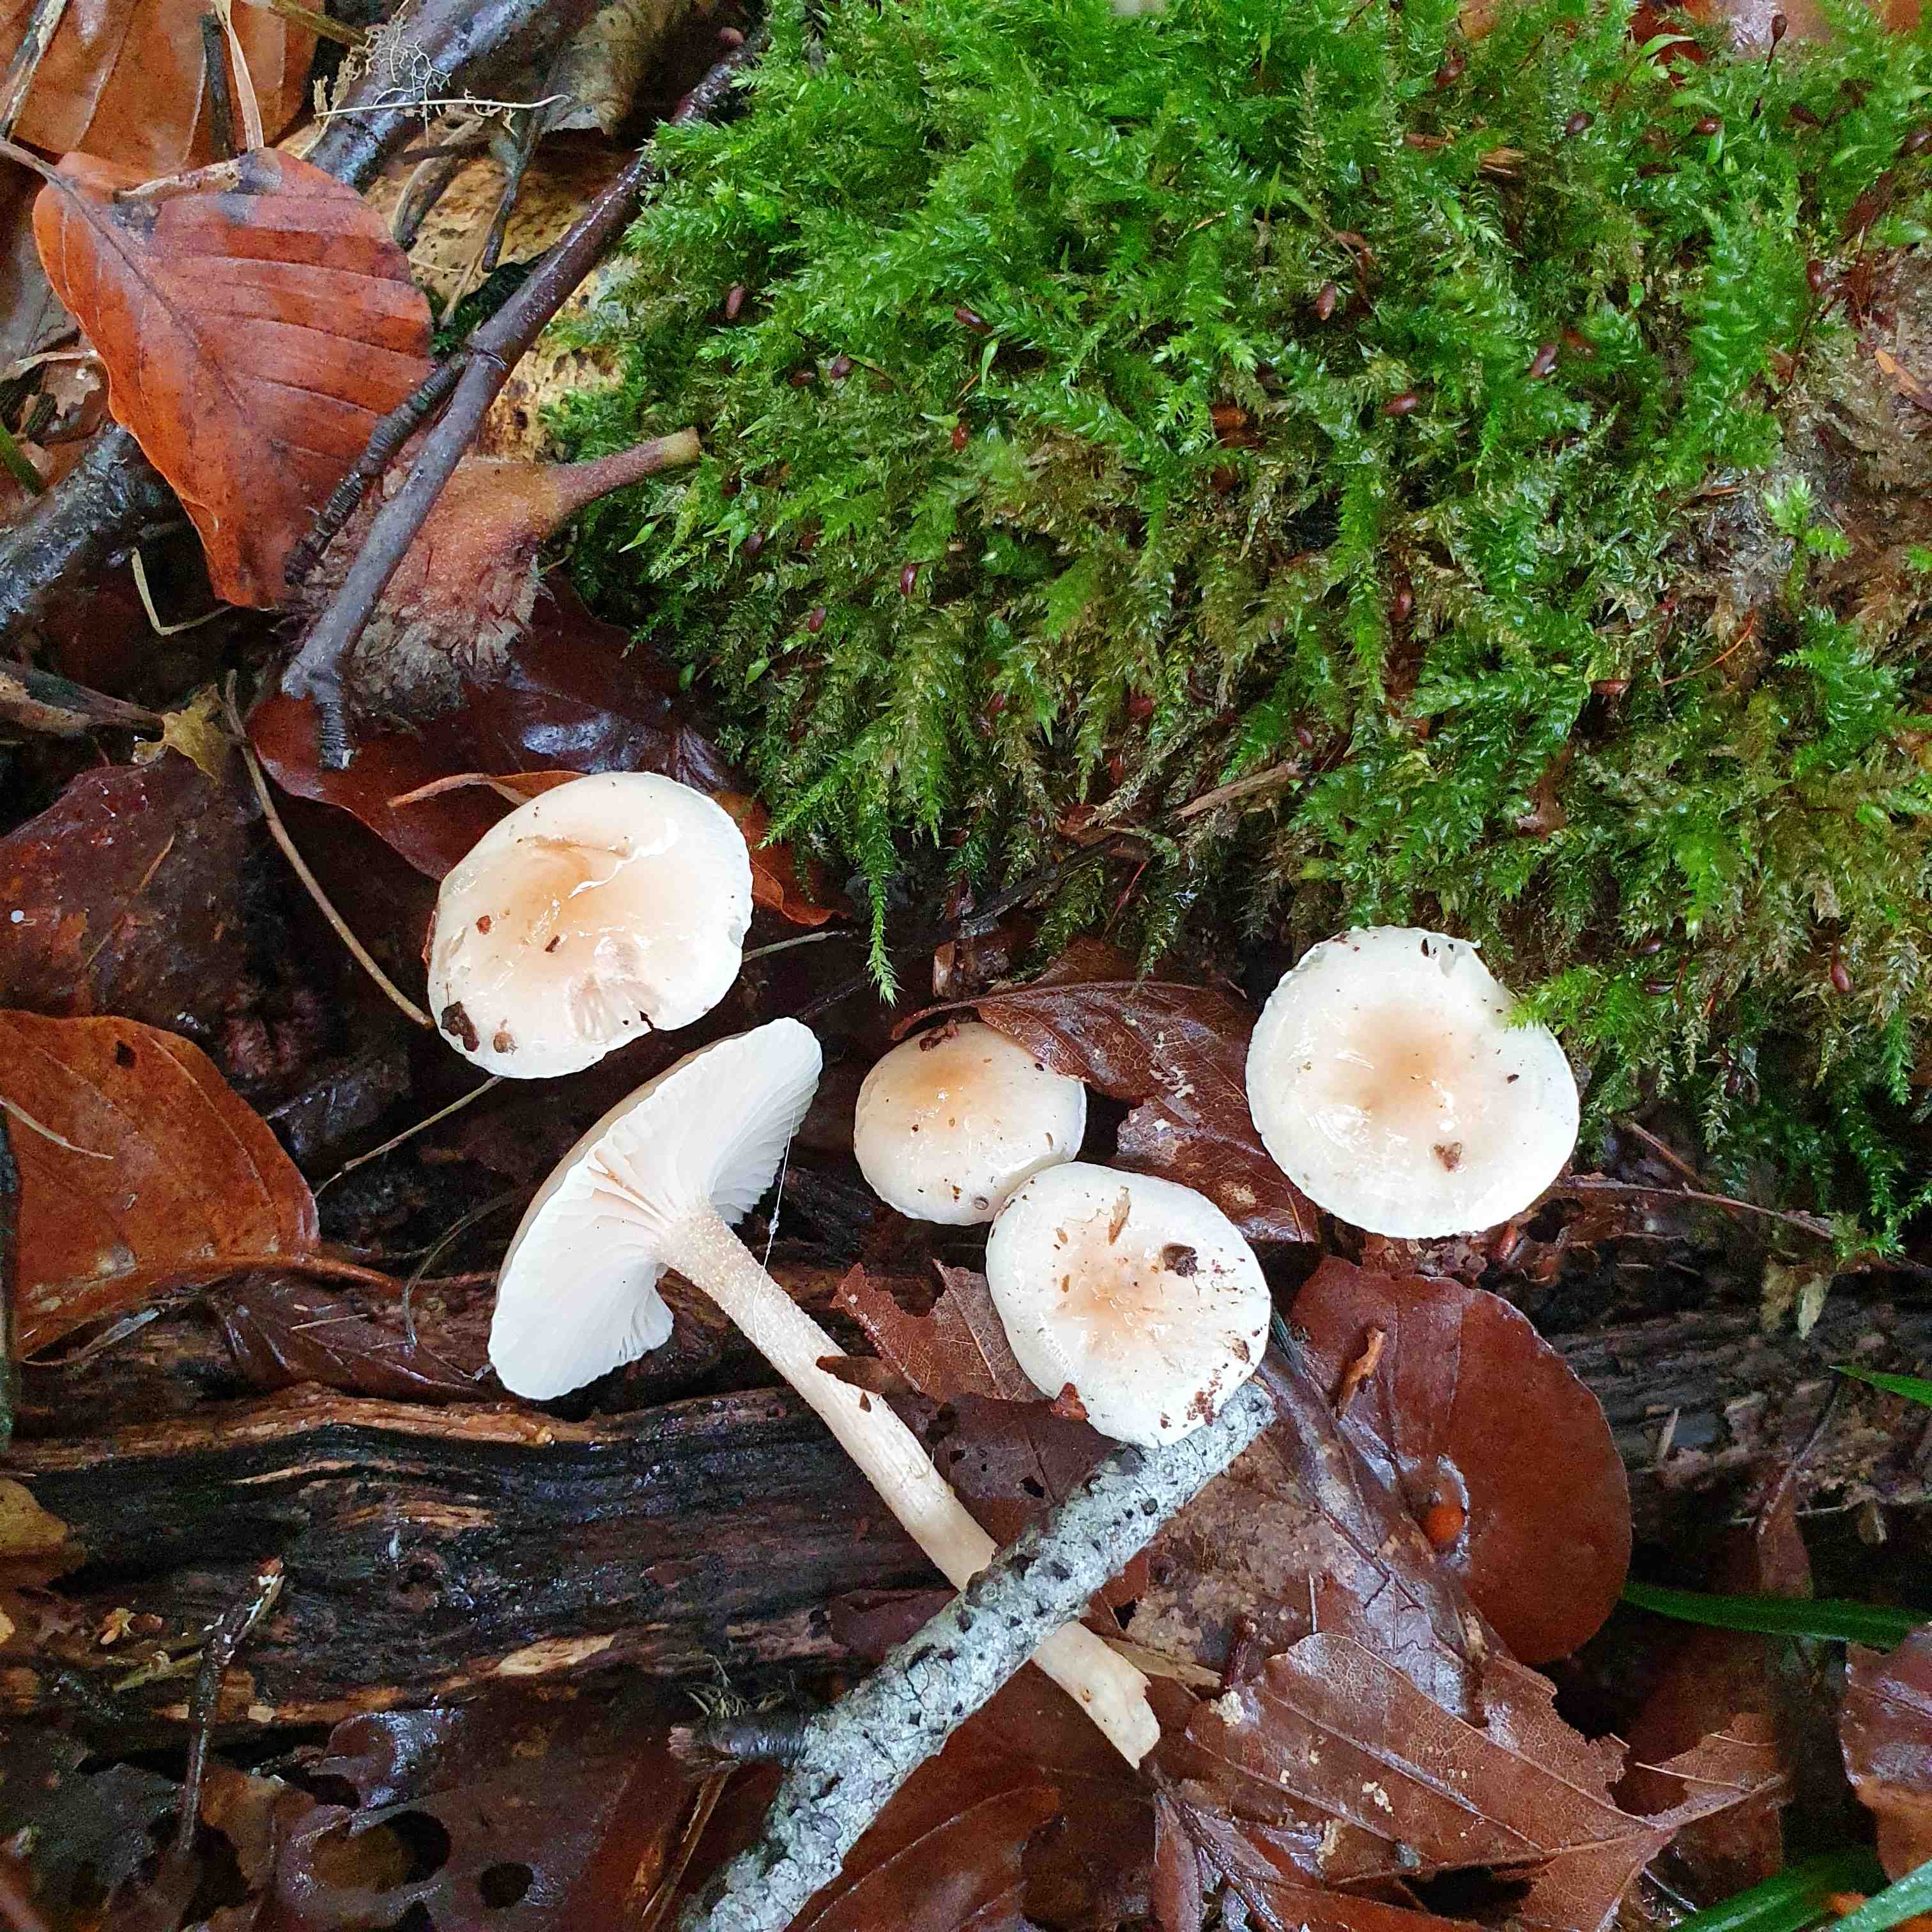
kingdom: Fungi
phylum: Basidiomycota
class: Agaricomycetes
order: Agaricales
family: Hygrophoraceae
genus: Hygrophorus
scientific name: Hygrophorus unicolor
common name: orangeøjet sneglehat
